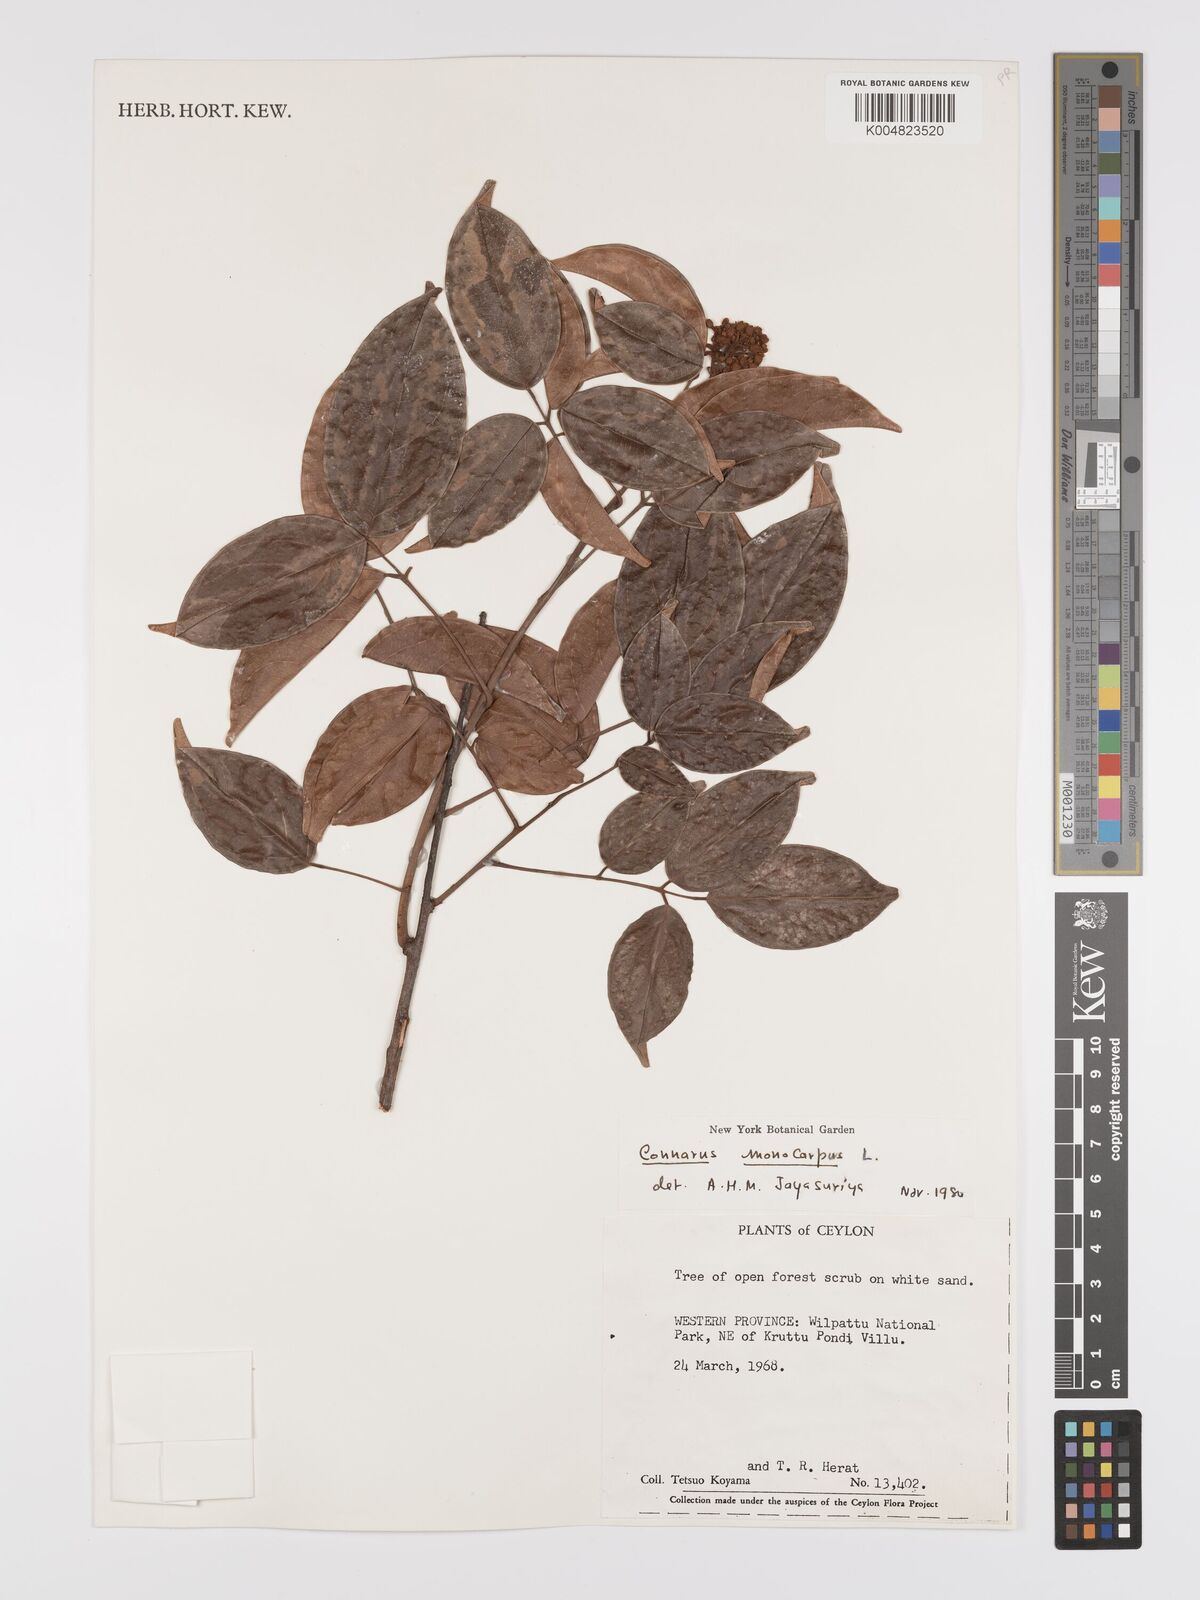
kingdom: Plantae
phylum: Tracheophyta
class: Magnoliopsida
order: Oxalidales
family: Connaraceae
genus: Connarus
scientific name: Connarus semidecandrus
